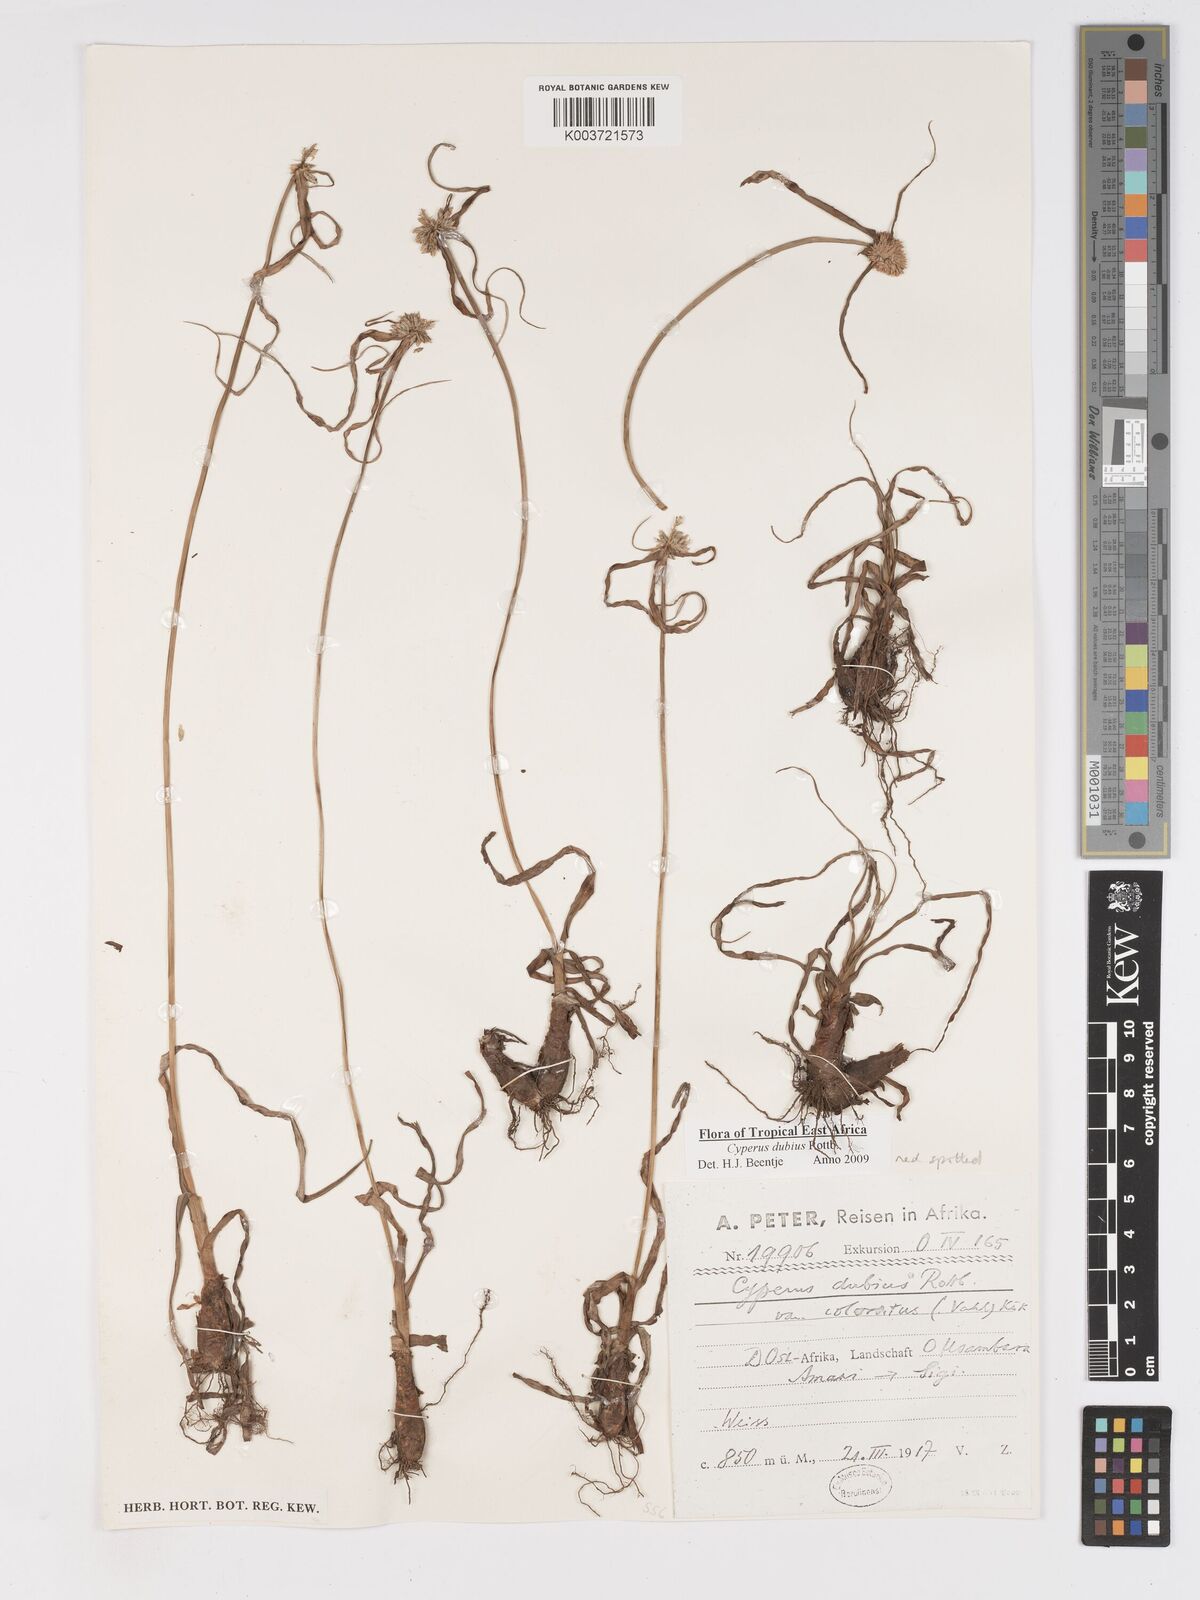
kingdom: Plantae
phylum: Tracheophyta
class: Liliopsida
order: Poales
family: Cyperaceae
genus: Cyperus
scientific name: Cyperus dubius
